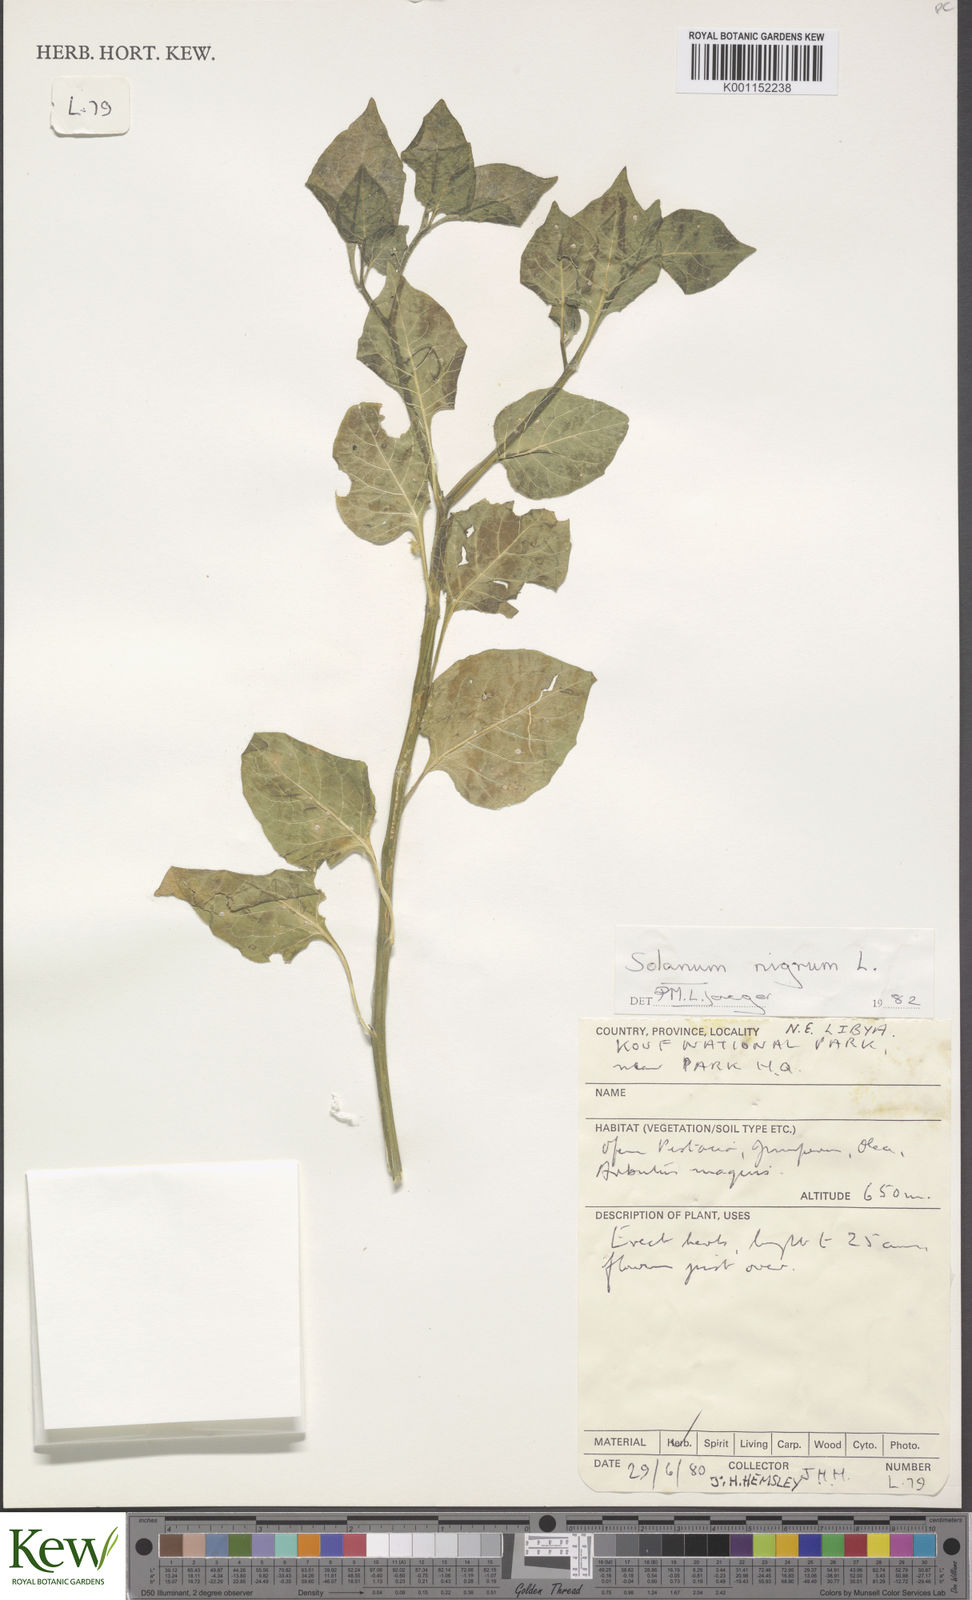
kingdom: Plantae
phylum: Tracheophyta
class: Magnoliopsida
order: Solanales
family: Solanaceae
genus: Solanum
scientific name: Solanum nigrum
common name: Black nightshade
